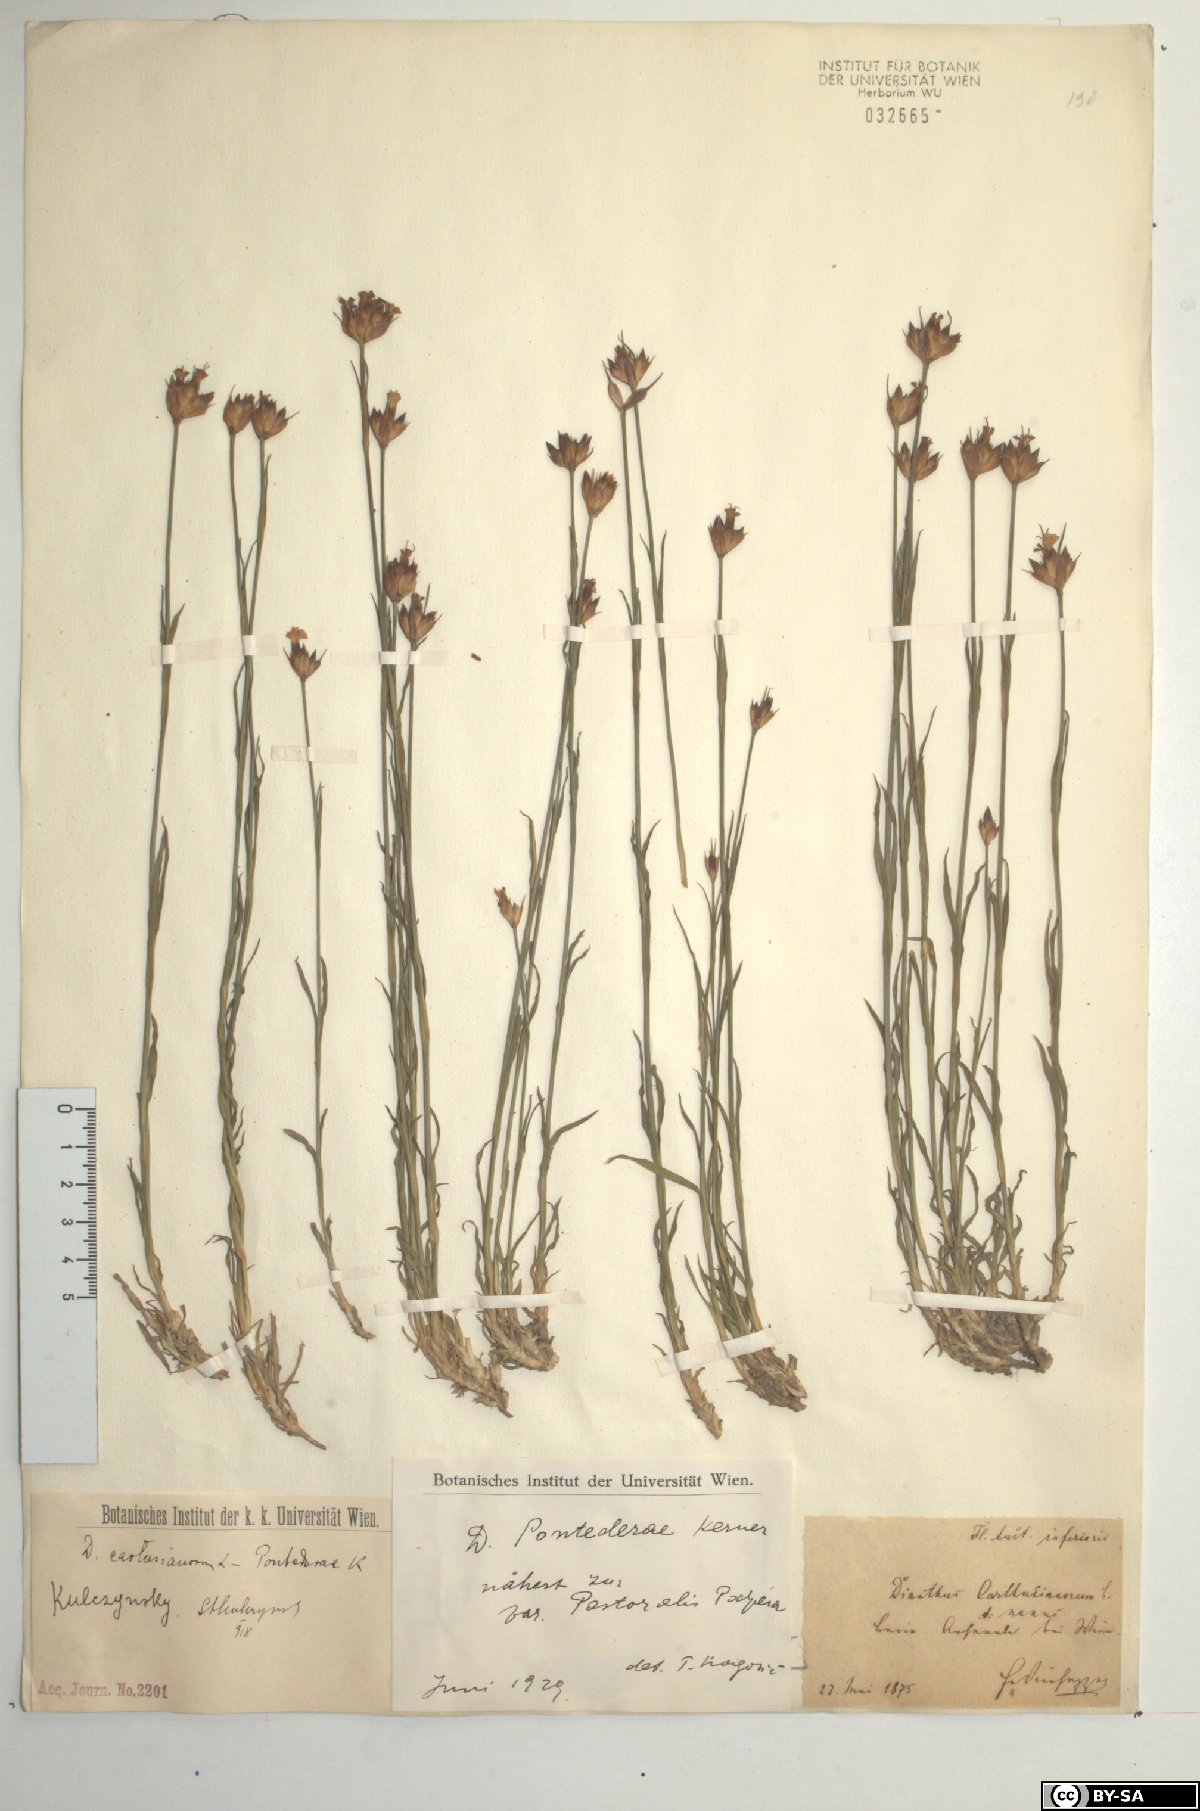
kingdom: Plantae
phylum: Tracheophyta
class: Magnoliopsida
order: Caryophyllales
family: Caryophyllaceae
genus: Dianthus
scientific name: Dianthus pontederae
